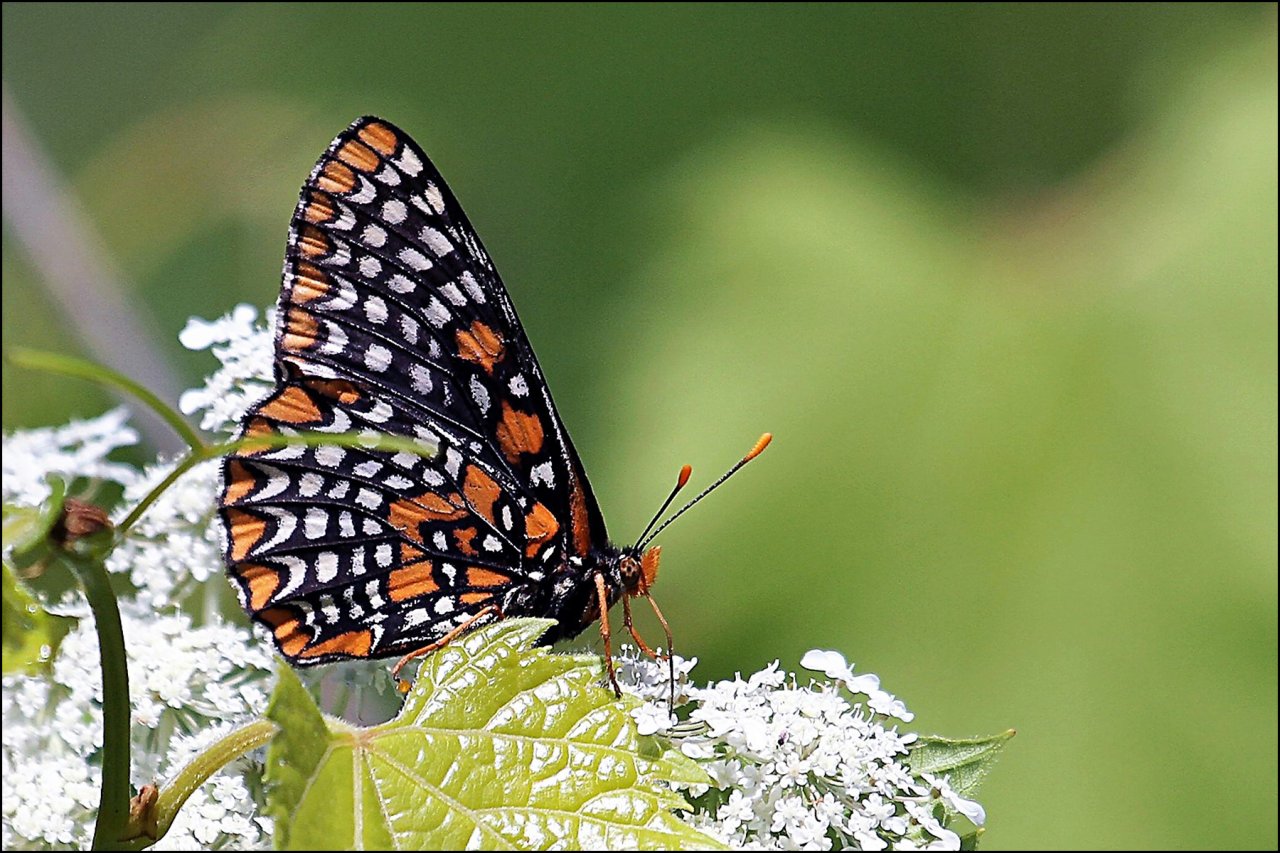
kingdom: Animalia
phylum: Arthropoda
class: Insecta
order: Lepidoptera
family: Nymphalidae
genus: Euphydryas
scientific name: Euphydryas phaeton
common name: Baltimore Checkerspot
